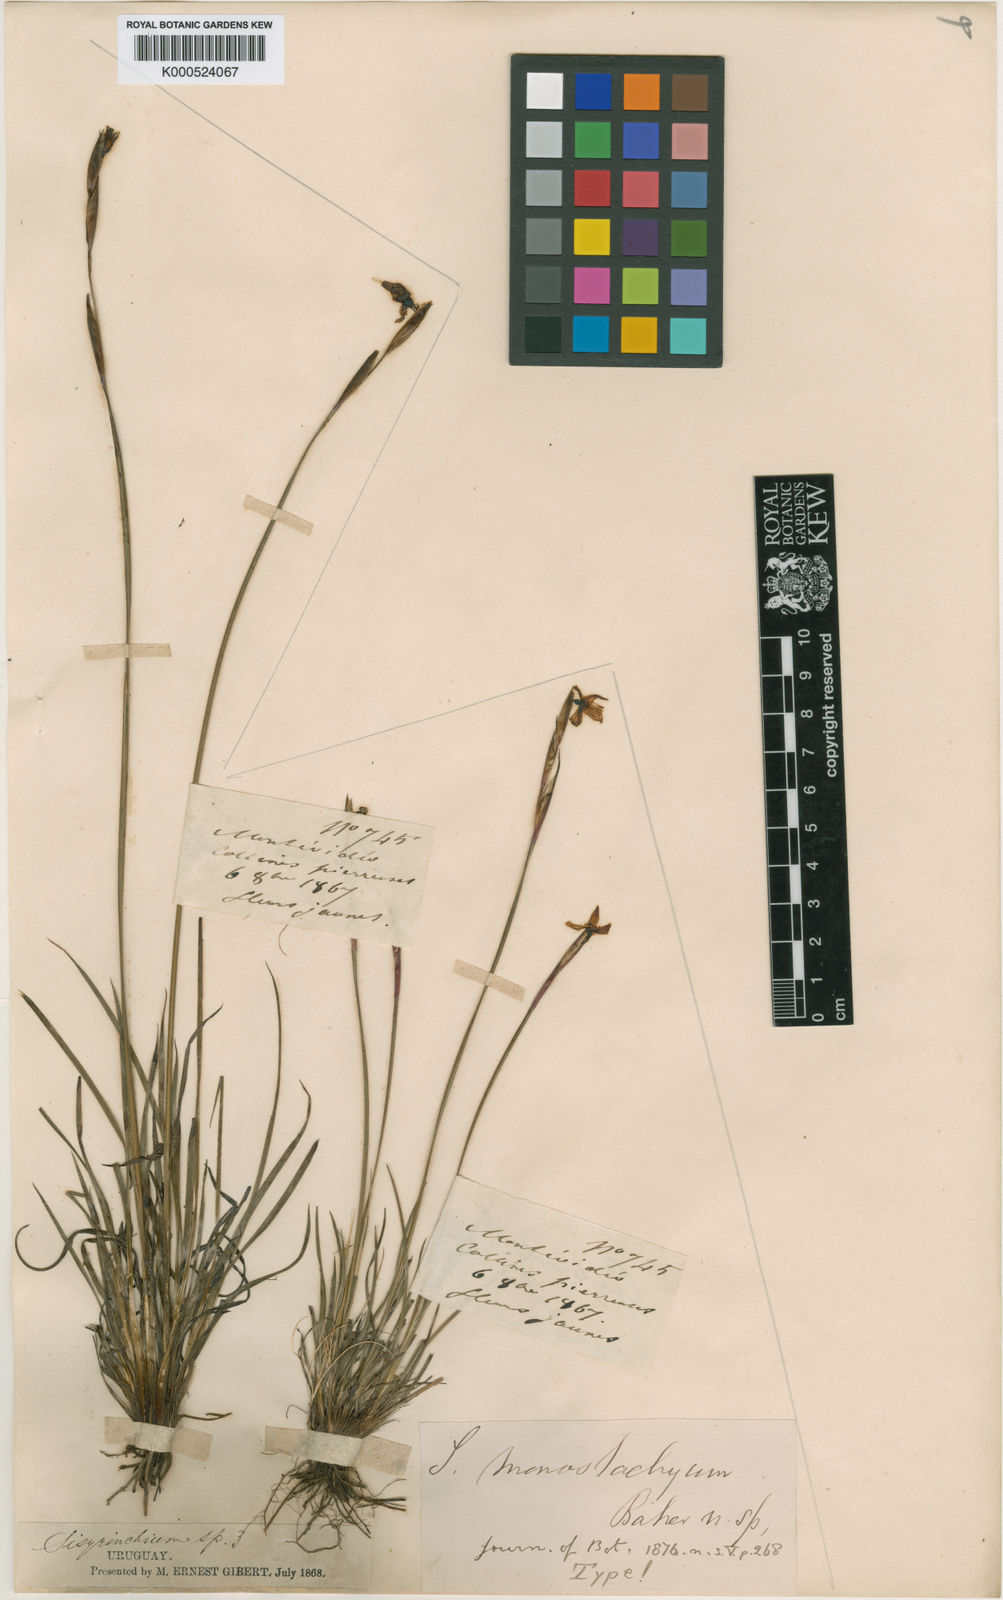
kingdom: Plantae
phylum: Tracheophyta
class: Liliopsida
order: Asparagales
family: Iridaceae
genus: Sisyrinchium
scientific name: Sisyrinchium avenaceum
